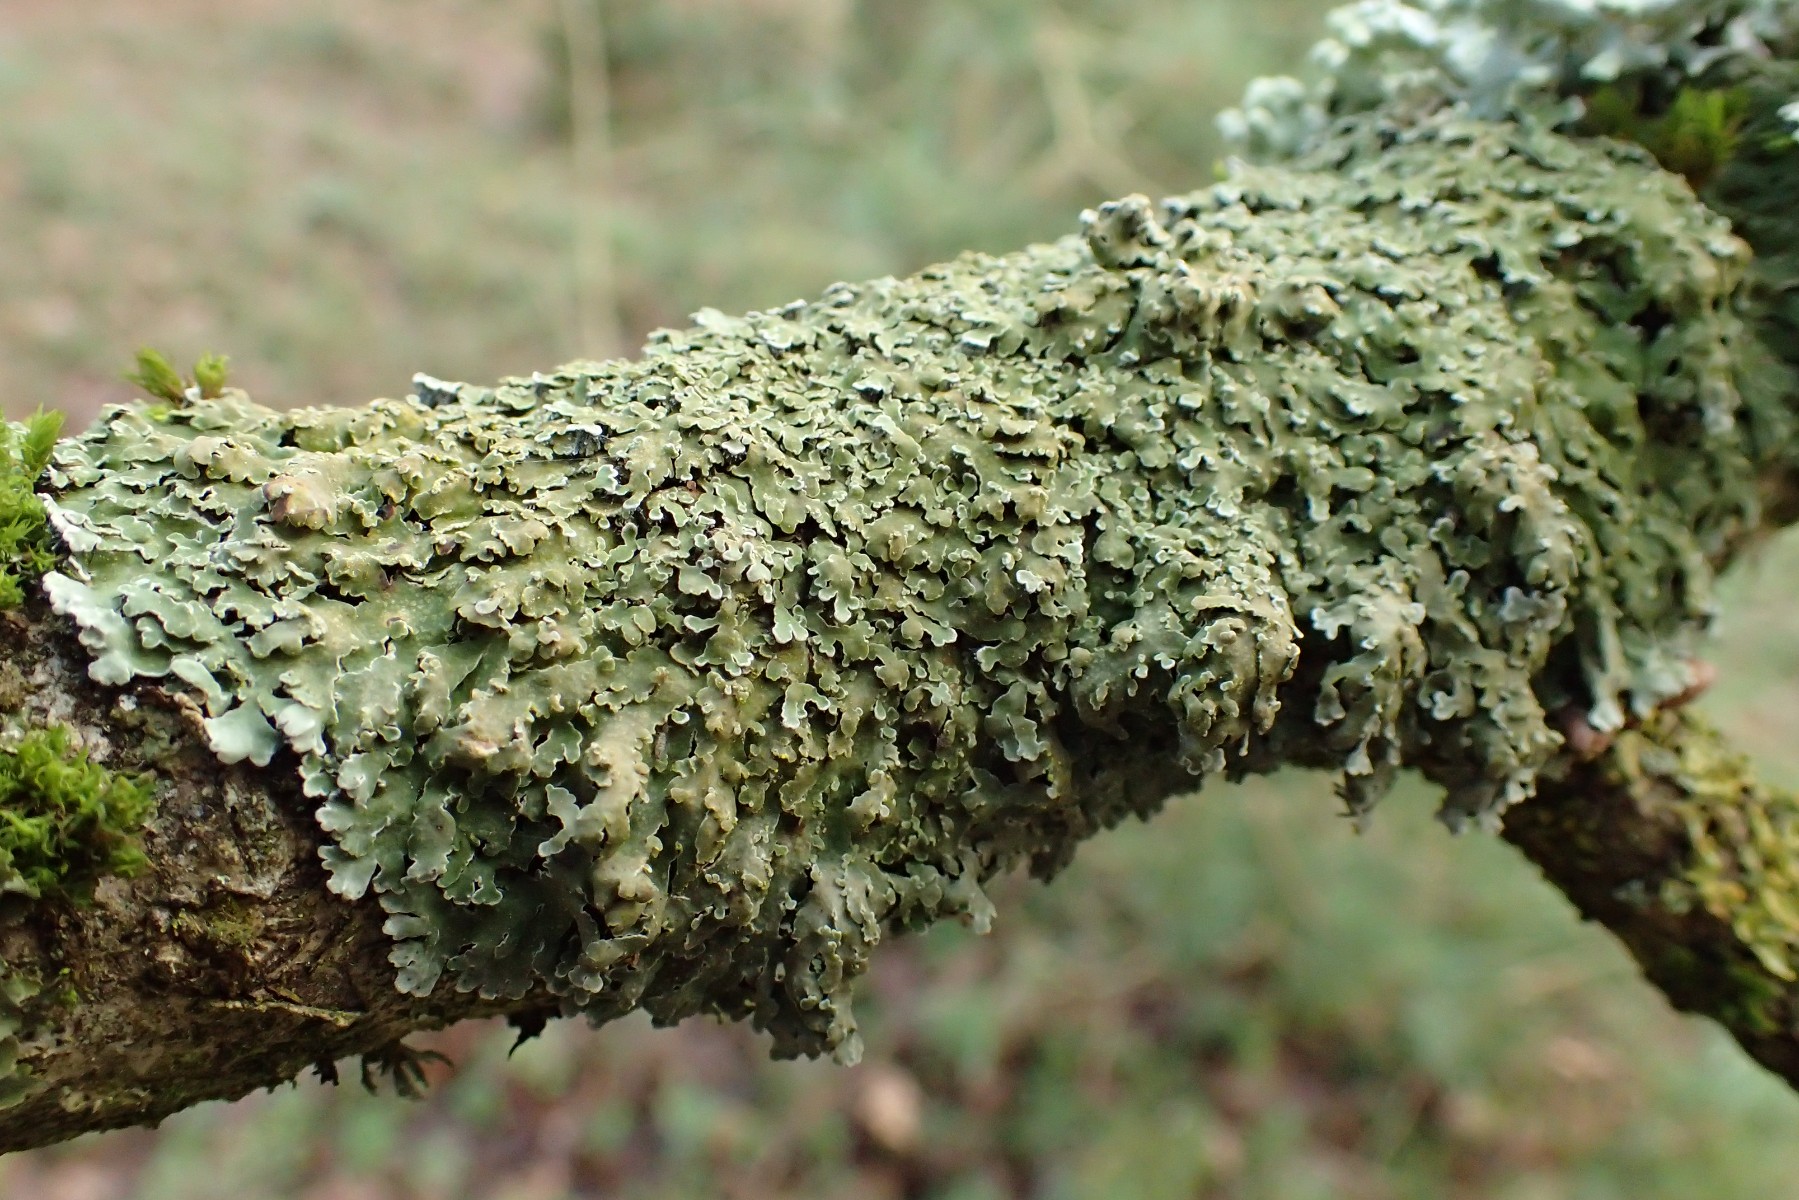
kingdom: Fungi
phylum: Ascomycota
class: Lecanoromycetes
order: Caliciales
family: Physciaceae
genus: Physconia
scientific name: Physconia distorta
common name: pudret dugrosetlav
